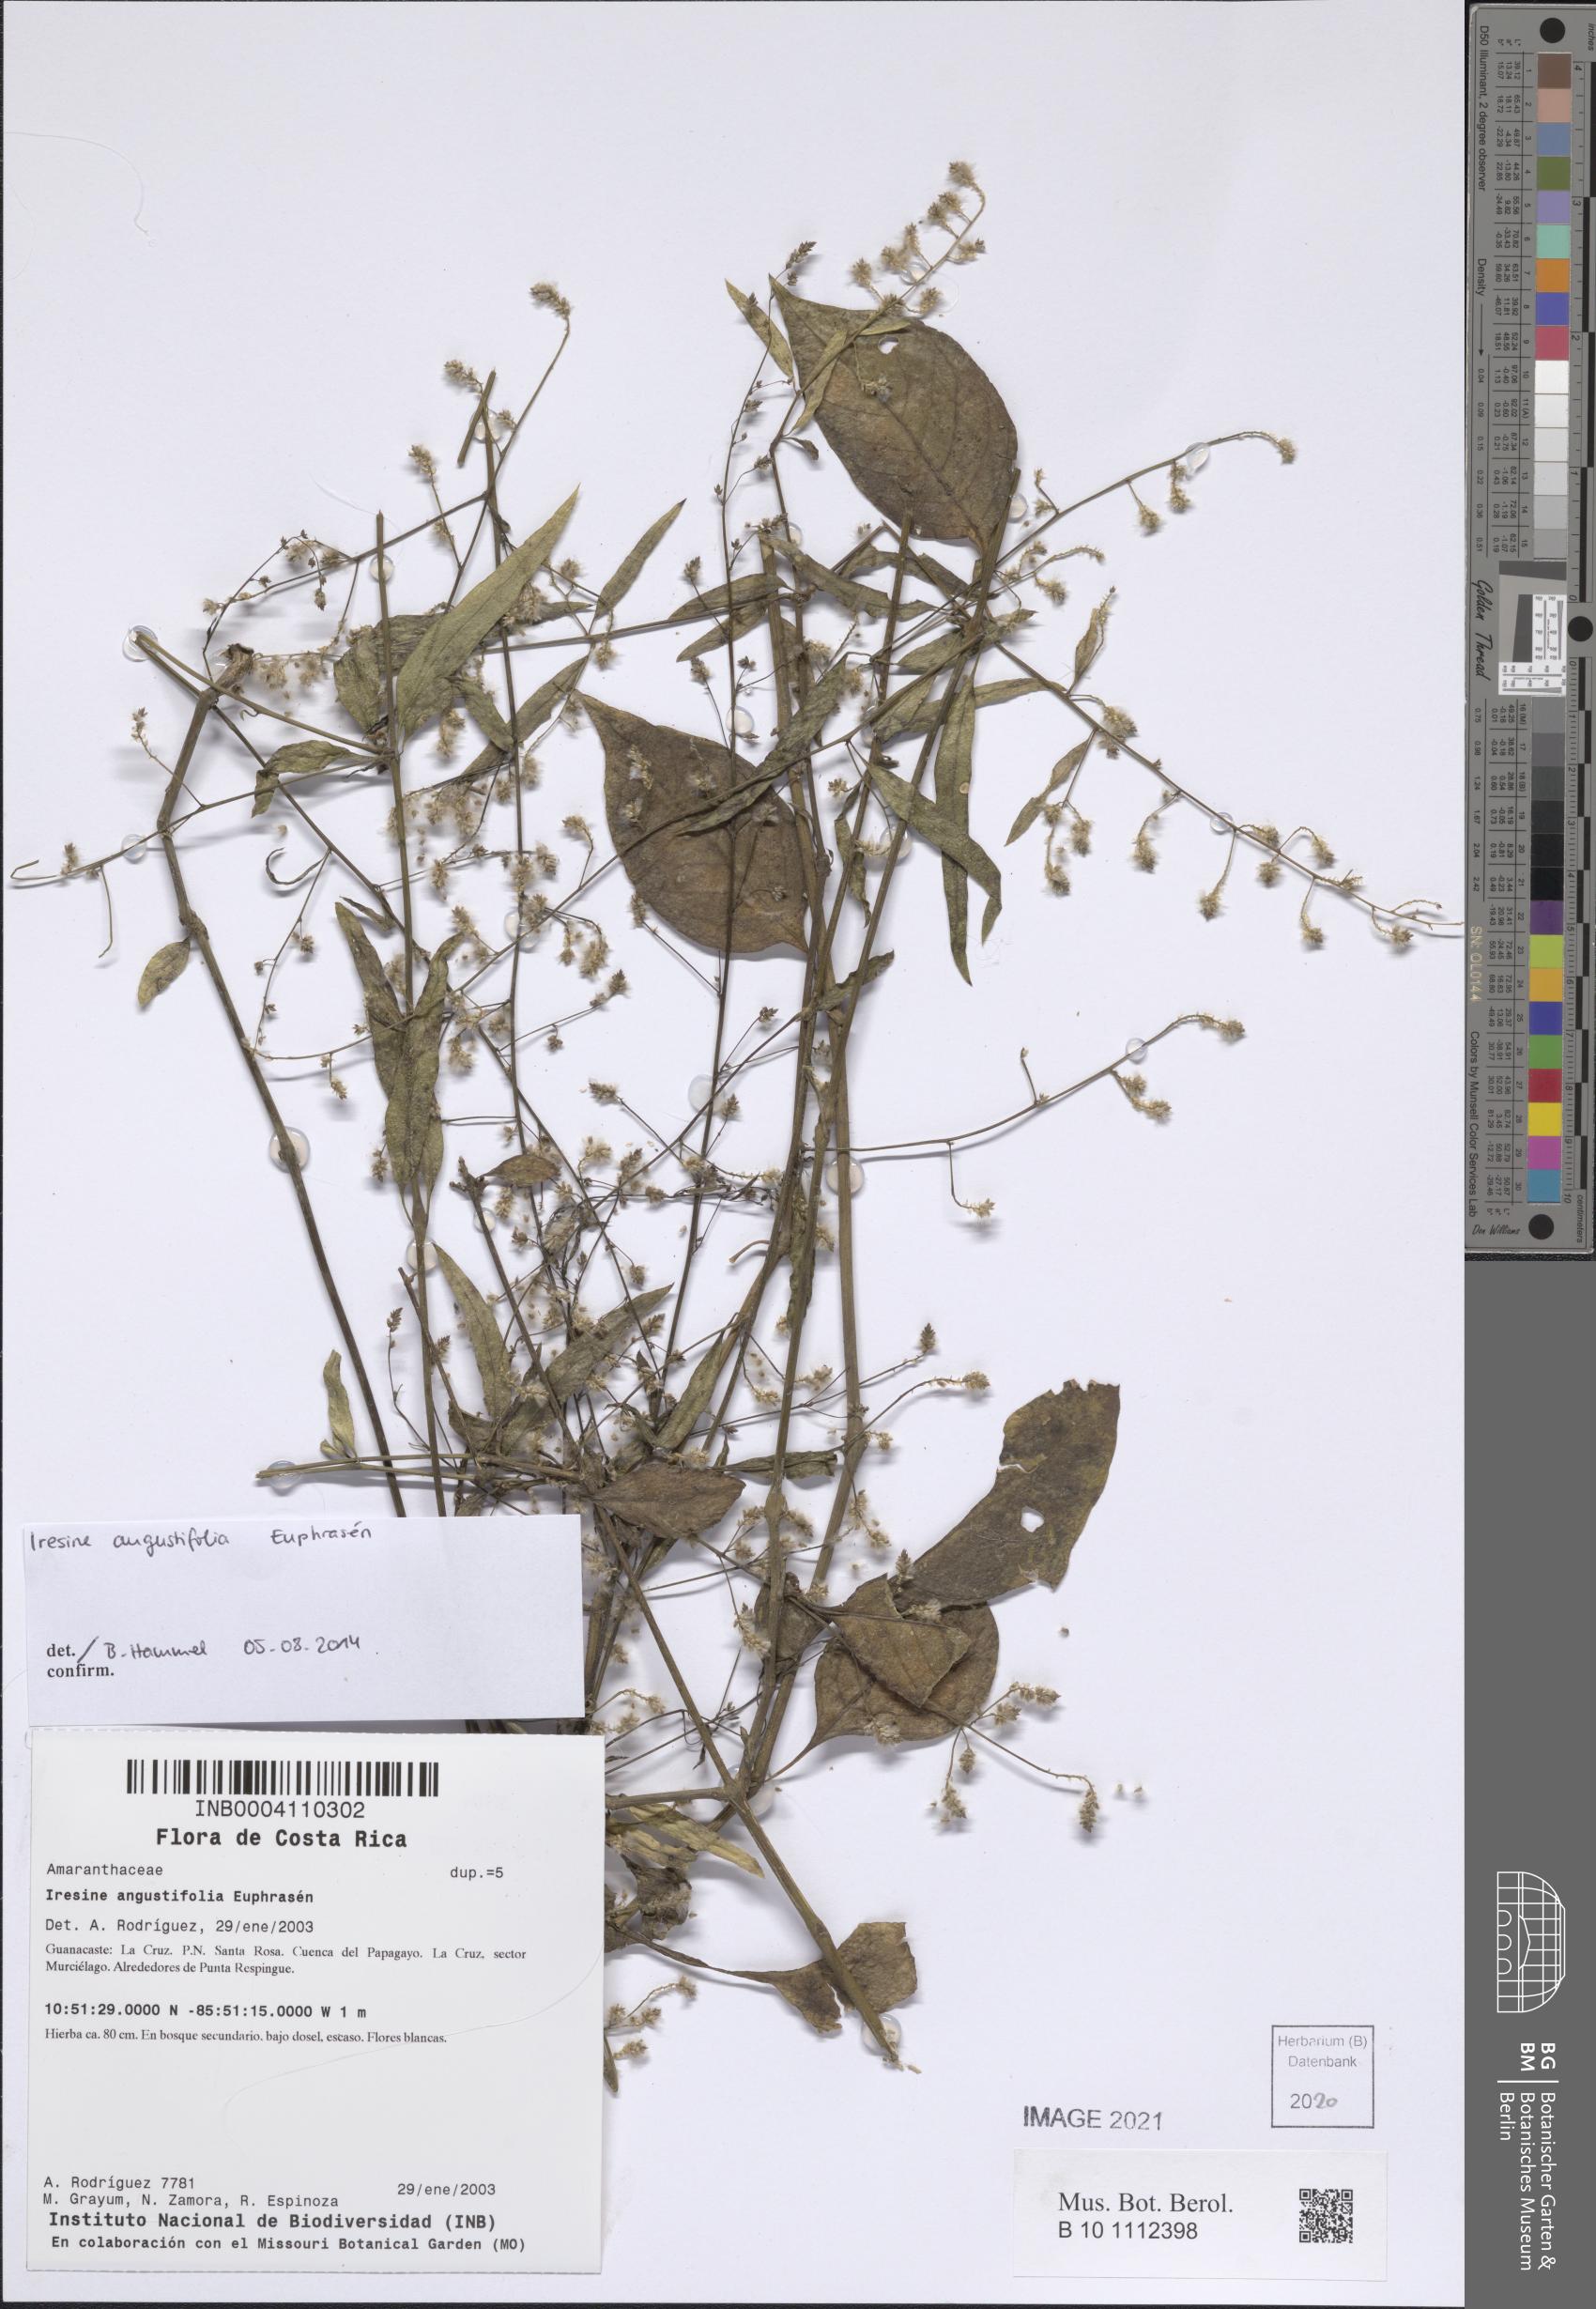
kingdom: Plantae
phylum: Tracheophyta
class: Magnoliopsida
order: Caryophyllales
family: Amaranthaceae
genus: Iresine
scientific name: Iresine angustifolia
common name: White snowplant
